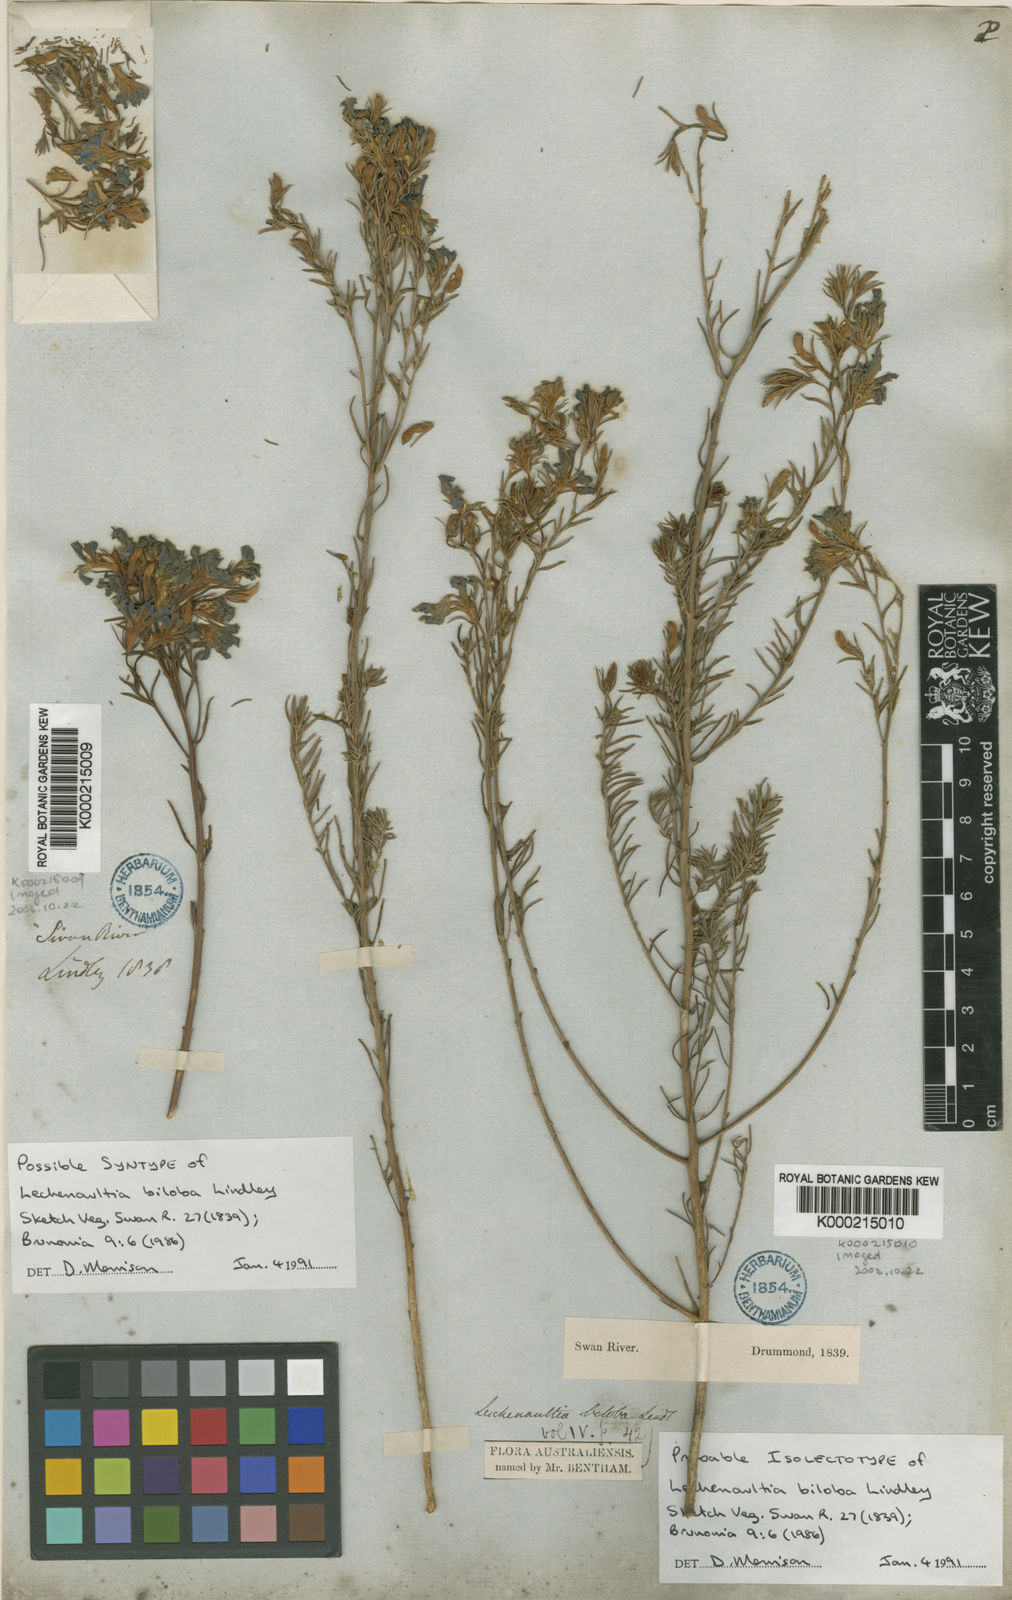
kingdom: Plantae
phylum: Tracheophyta
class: Magnoliopsida
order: Asterales
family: Goodeniaceae
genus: Leschenaultia
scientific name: Leschenaultia biloba
